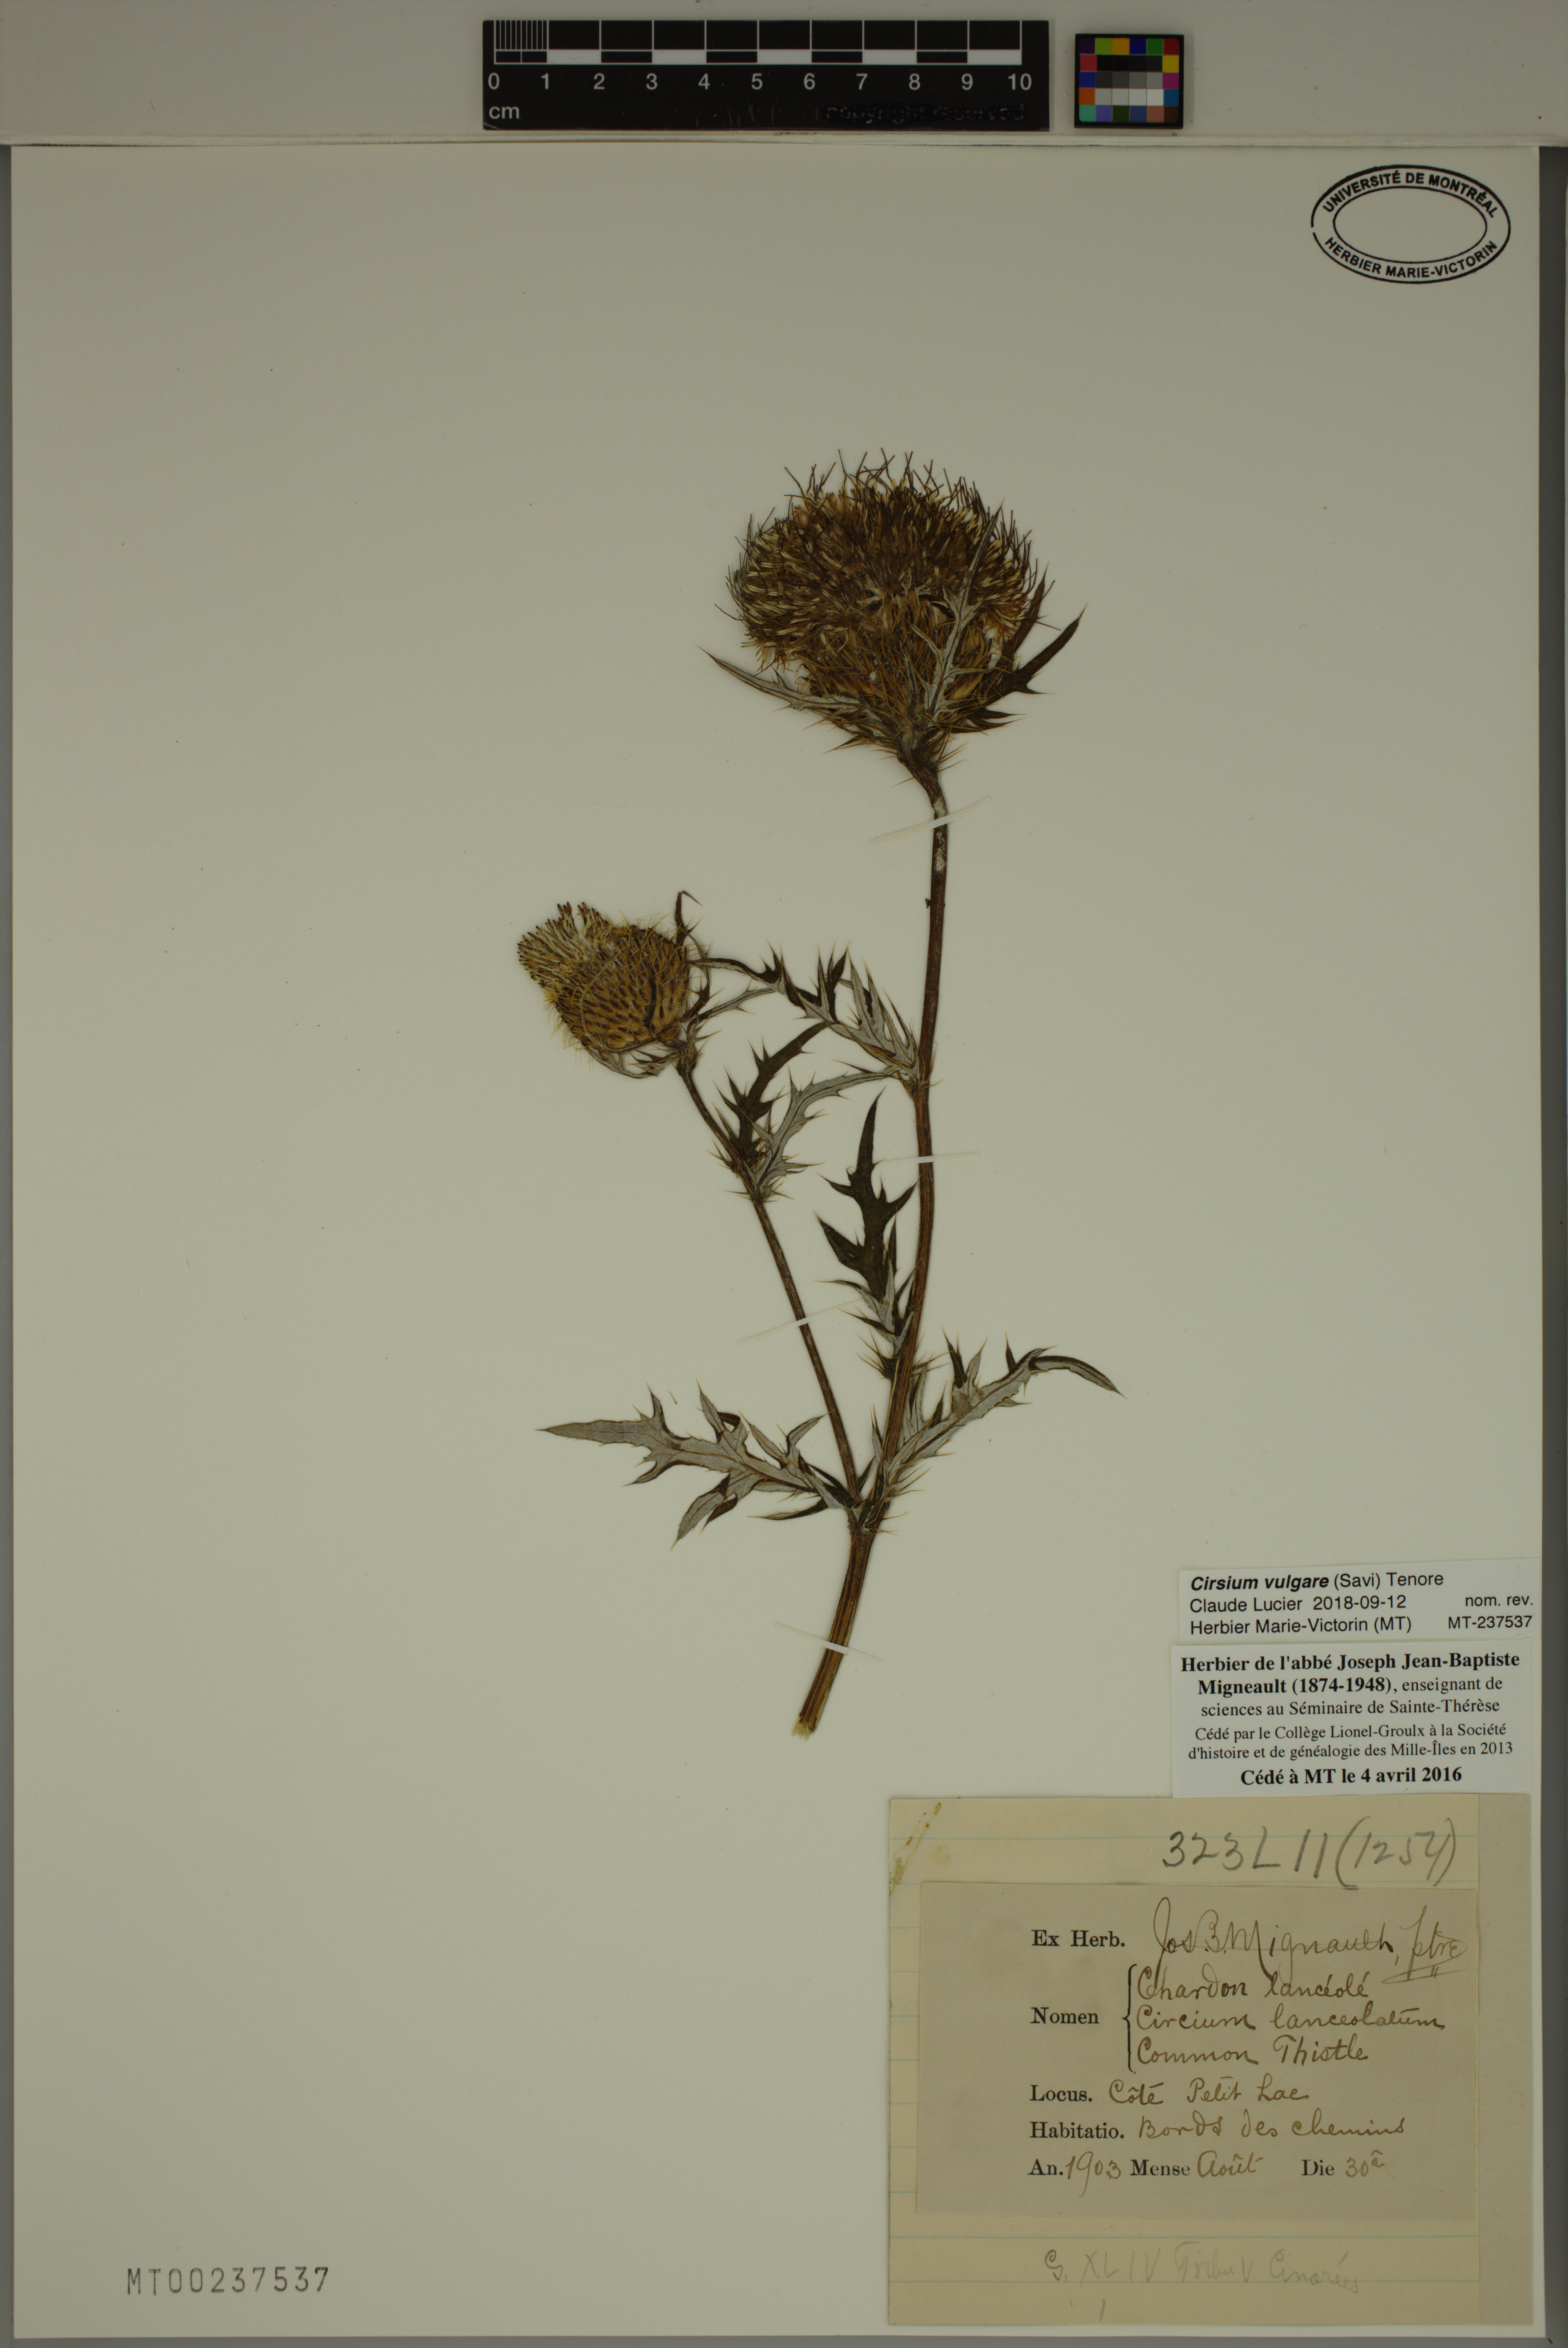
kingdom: Plantae
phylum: Tracheophyta
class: Magnoliopsida
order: Asterales
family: Asteraceae
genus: Cirsium
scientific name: Cirsium vulgare
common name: Bull thistle
